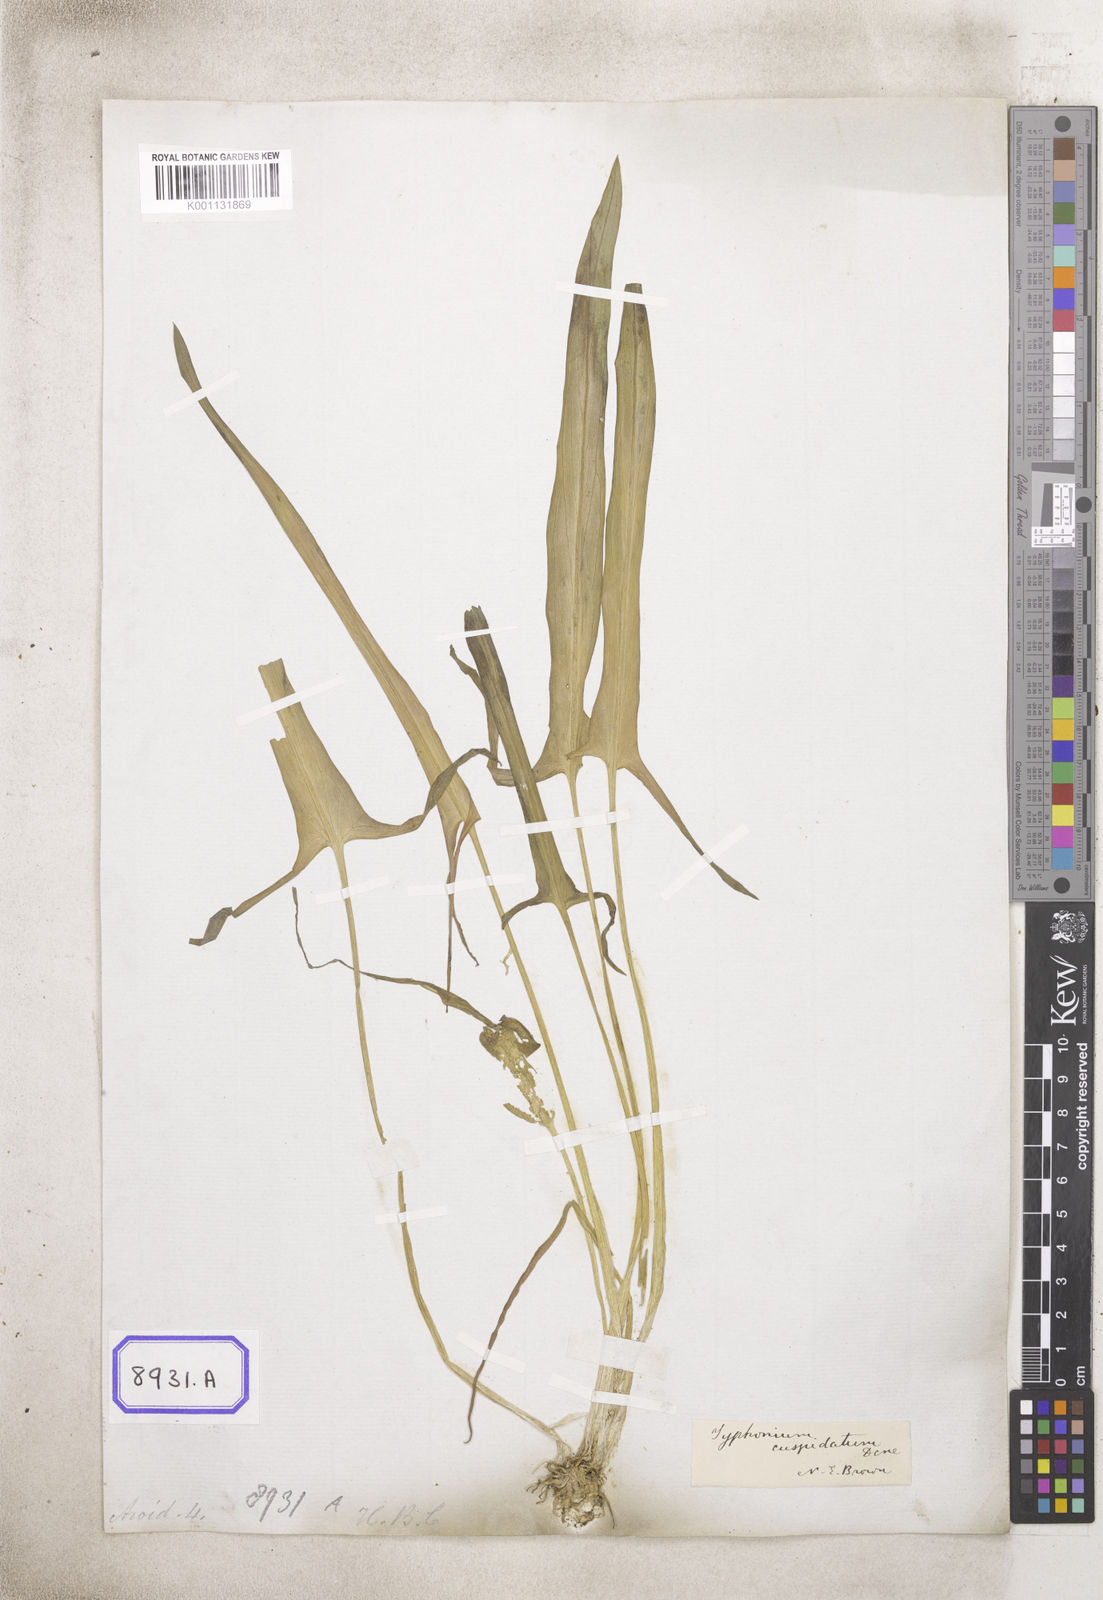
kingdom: Plantae
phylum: Tracheophyta
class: Liliopsida
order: Alismatales
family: Araceae
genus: Typhonium
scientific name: Typhonium flagelliforme
